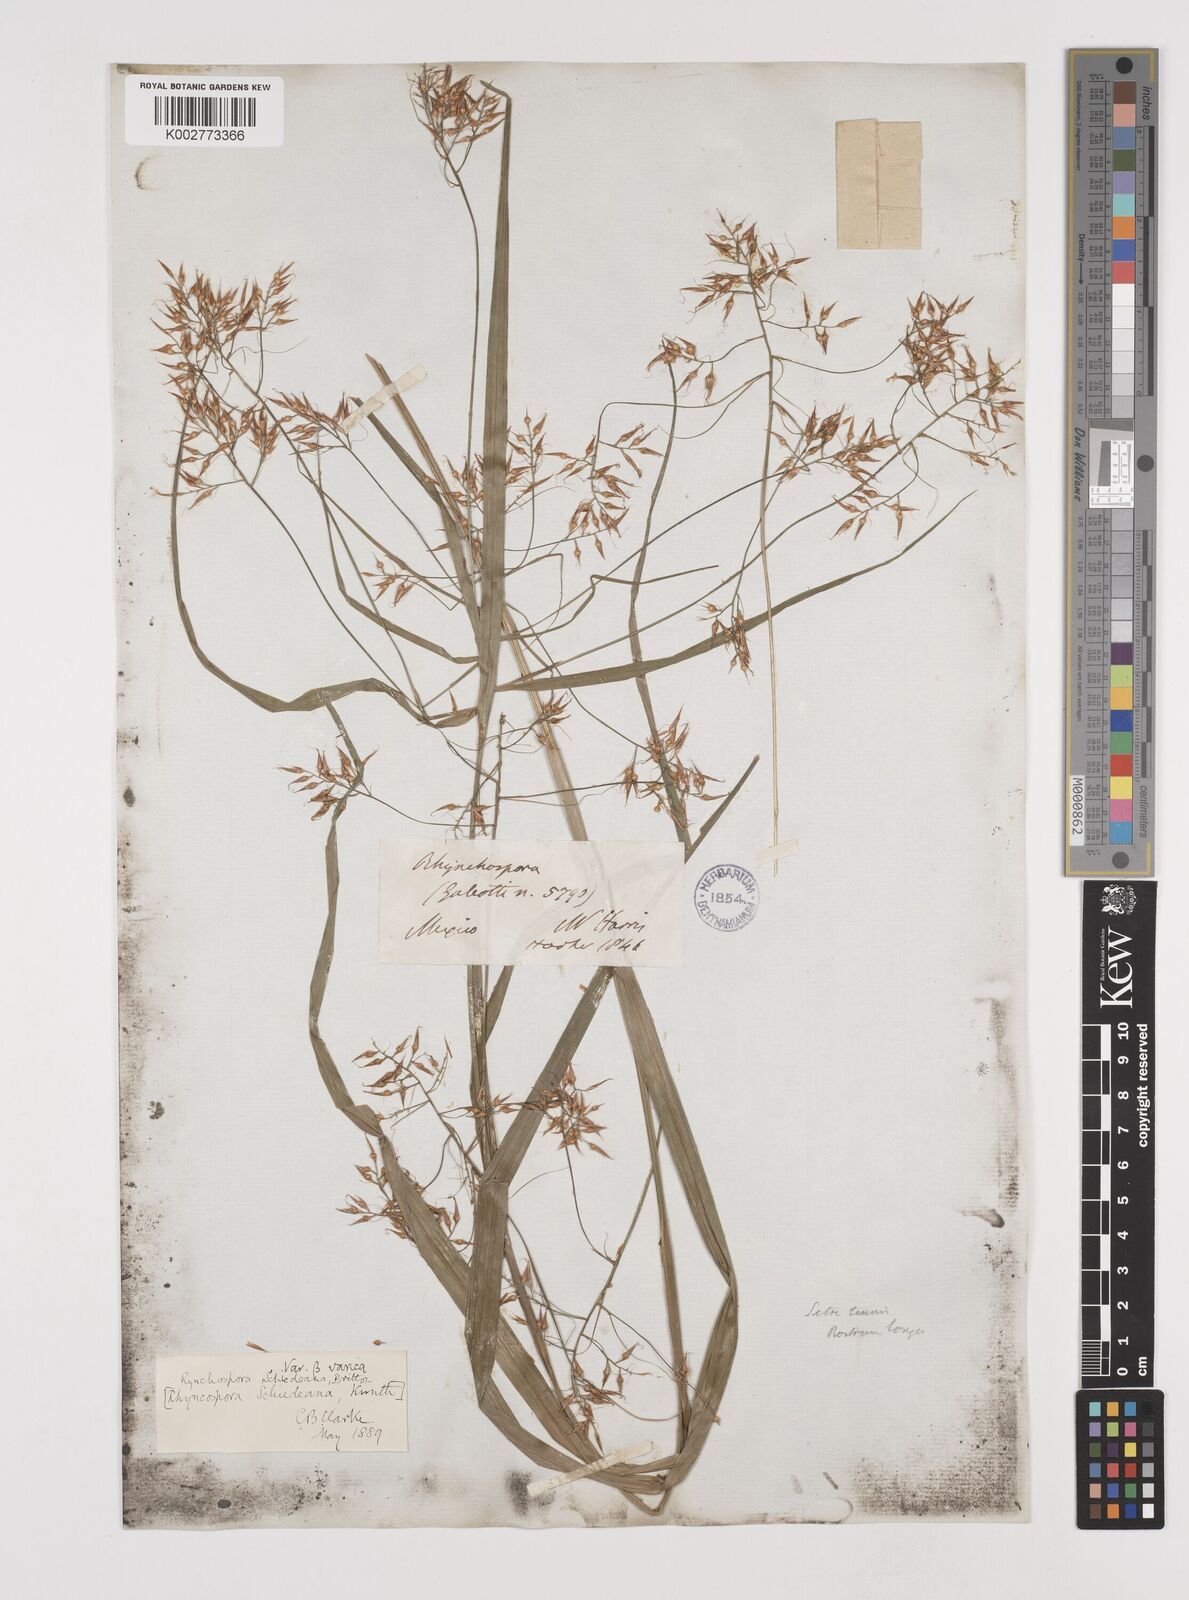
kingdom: Plantae
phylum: Tracheophyta
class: Liliopsida
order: Poales
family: Cyperaceae
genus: Rhynchospora
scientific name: Rhynchospora schiedeana
